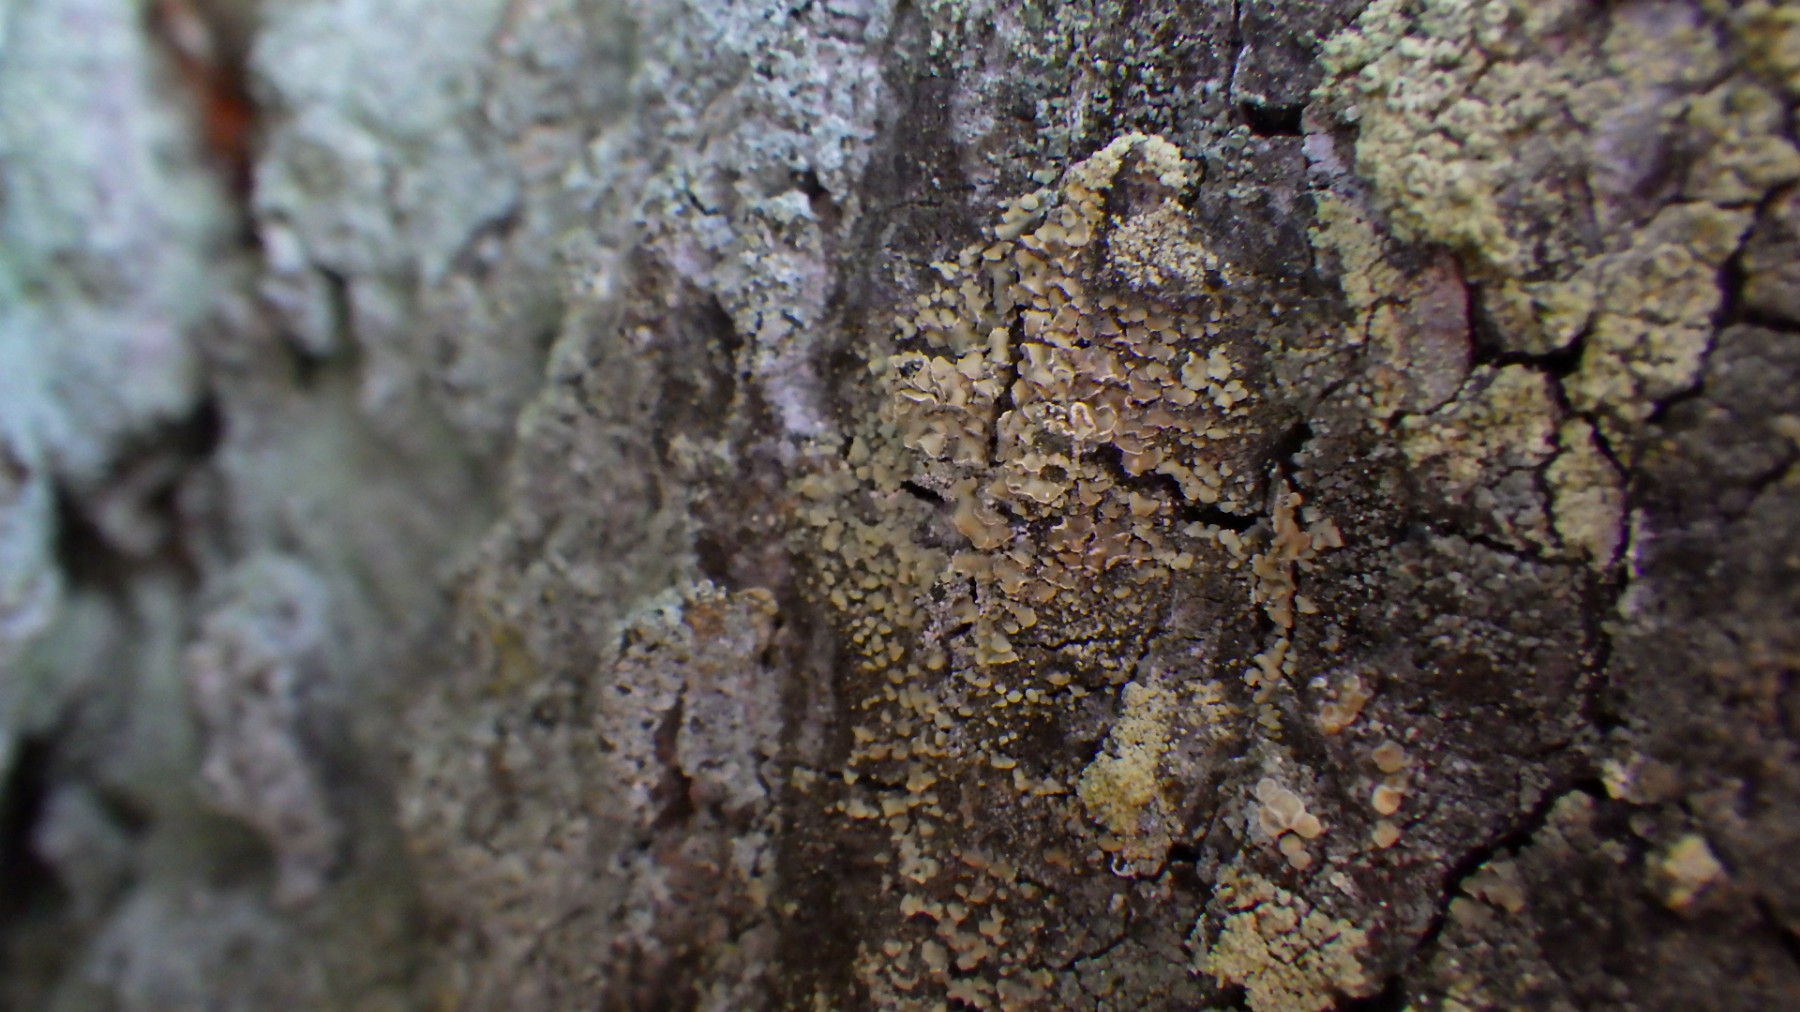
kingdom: Fungi
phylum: Ascomycota
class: Lecanoromycetes
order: Umbilicariales
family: Ophioparmaceae
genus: Hypocenomyce
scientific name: Hypocenomyce scalaris
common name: småskællet muslinglav
